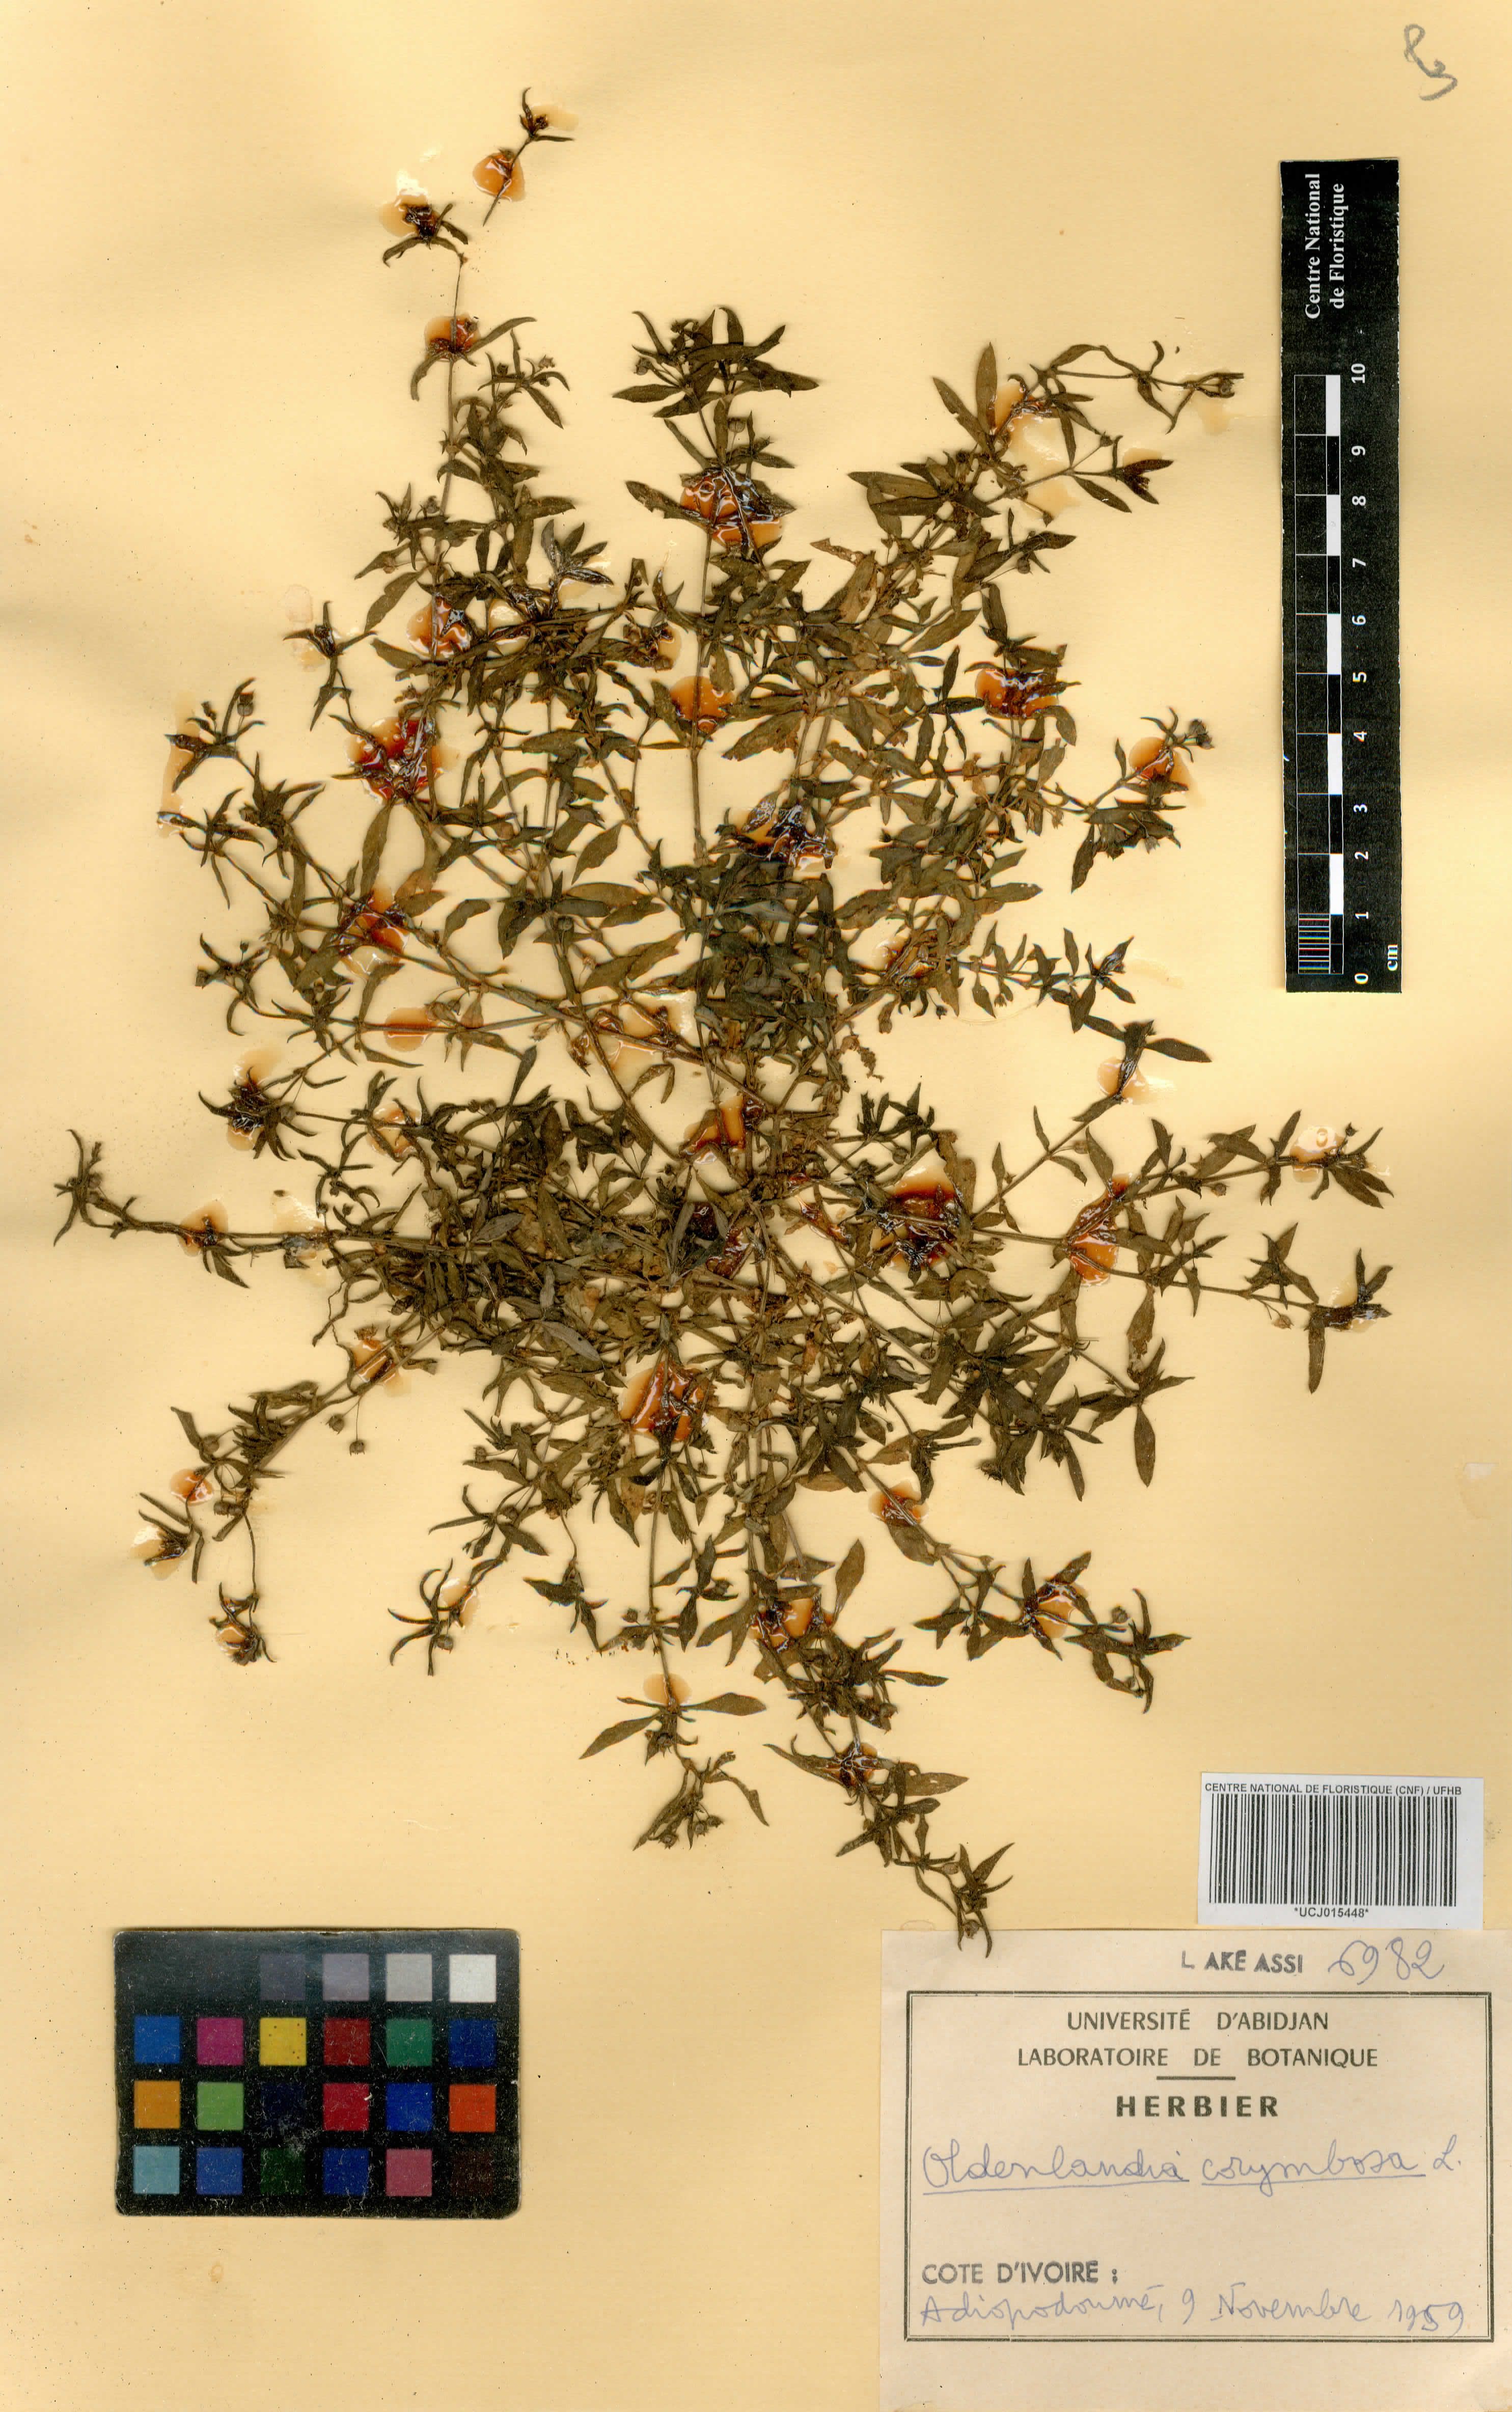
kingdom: Plantae
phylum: Tracheophyta
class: Magnoliopsida
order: Gentianales
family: Rubiaceae
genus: Oldenlandia
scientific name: Oldenlandia corymbosa
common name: Flat-top mille graines
